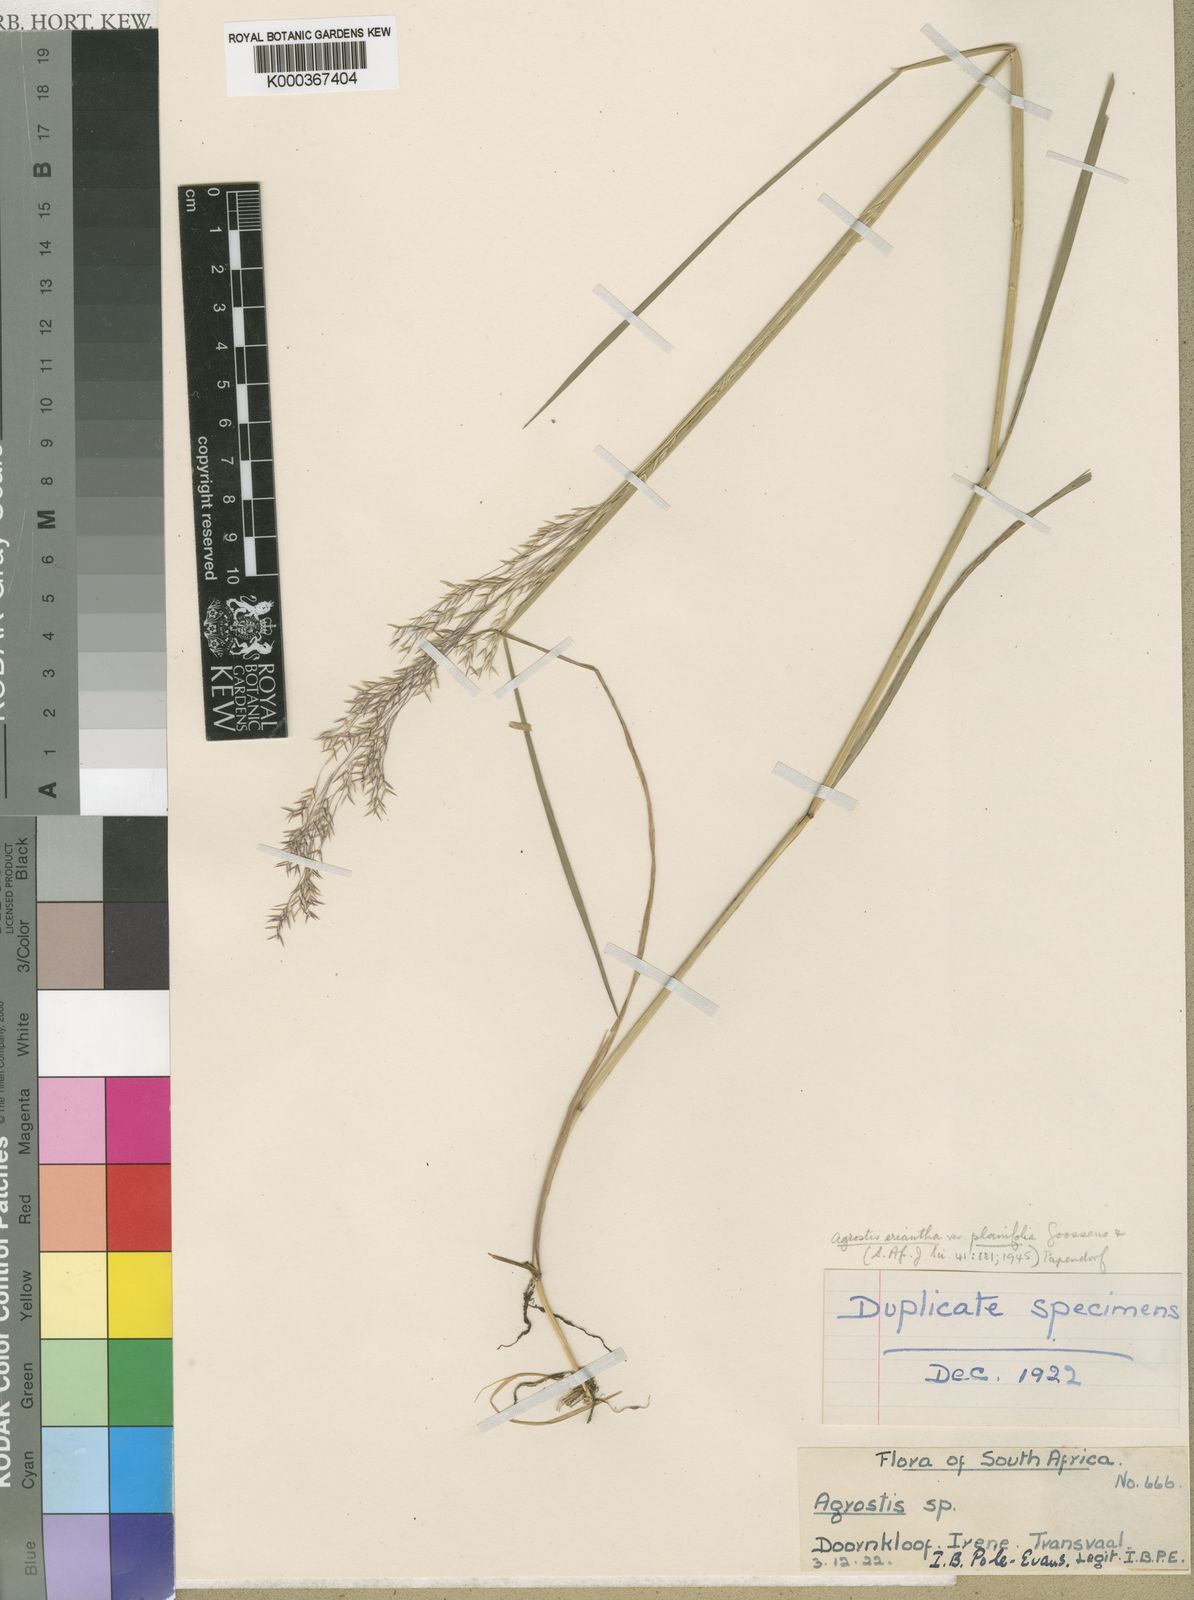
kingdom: Plantae
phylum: Tracheophyta
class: Liliopsida
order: Poales
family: Poaceae
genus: Lachnagrostis
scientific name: Lachnagrostis eriantha
